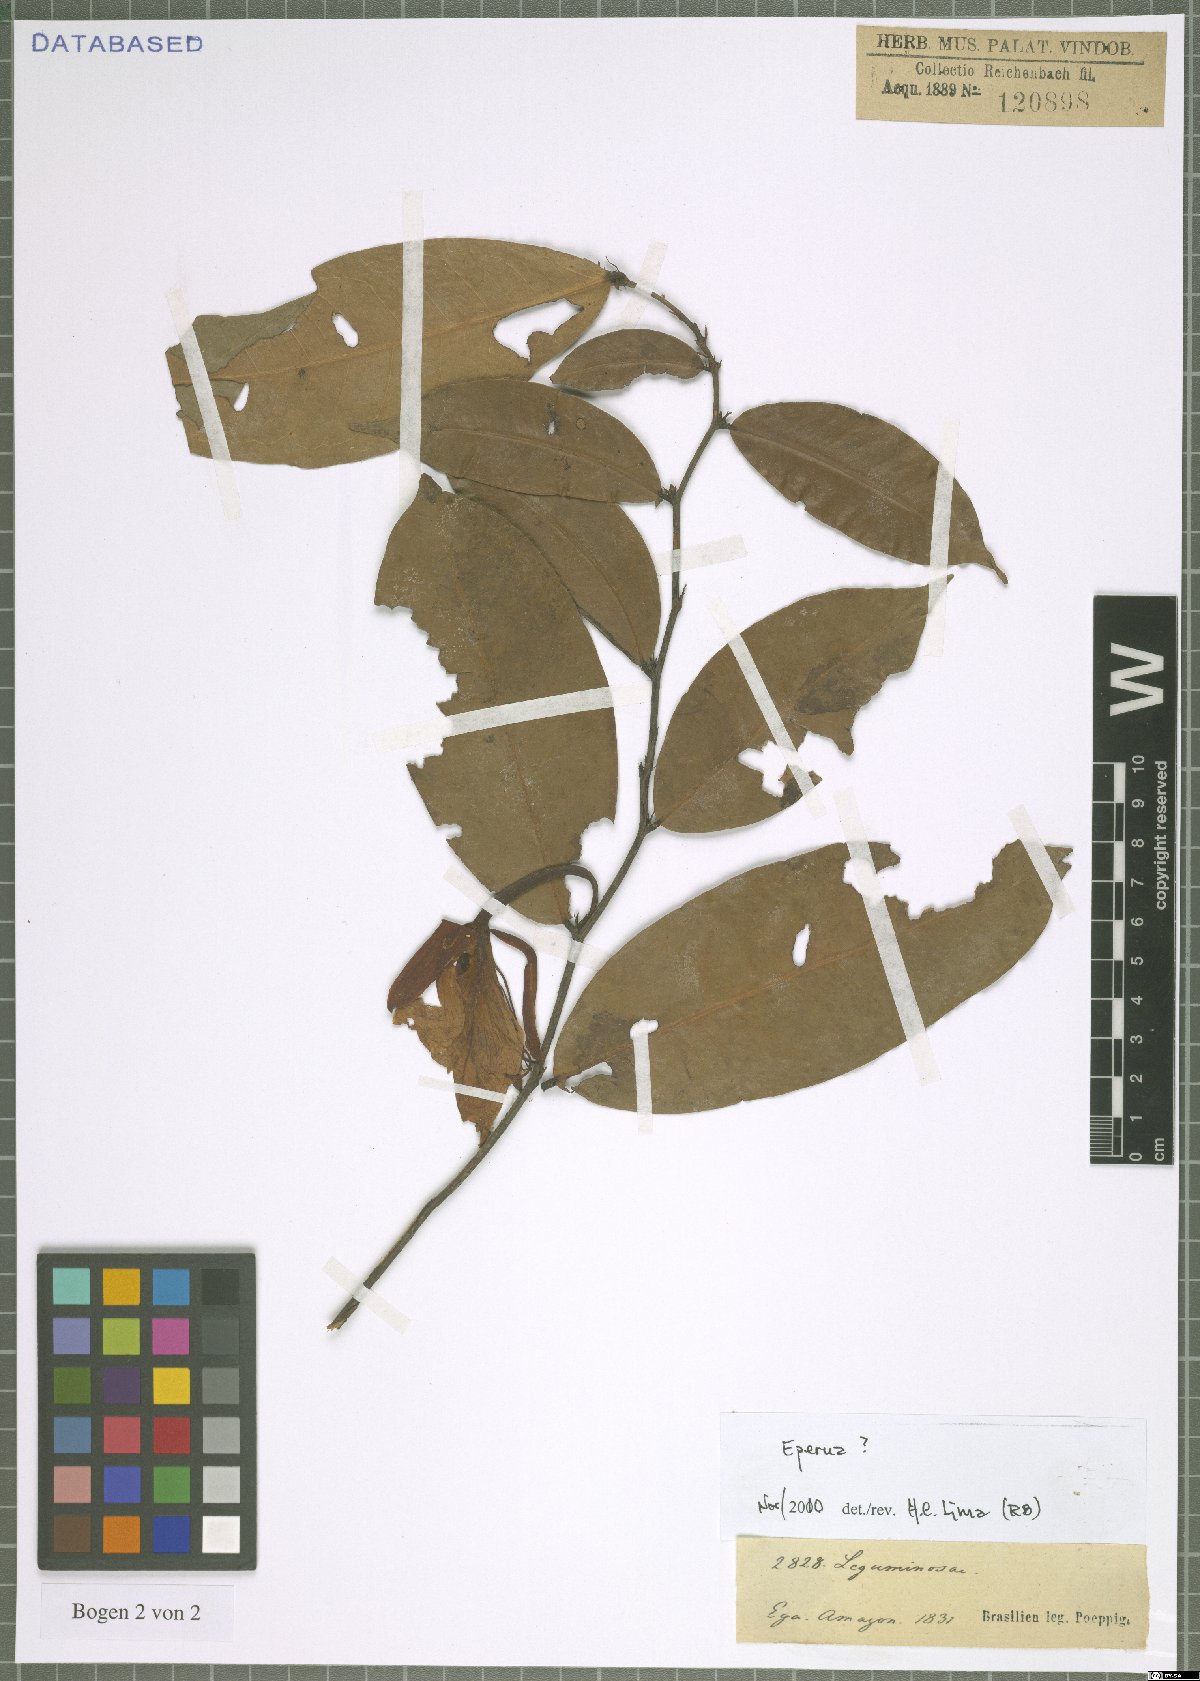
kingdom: Plantae
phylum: Tracheophyta
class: Magnoliopsida
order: Fabales
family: Fabaceae
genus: Eperua
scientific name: Eperua
